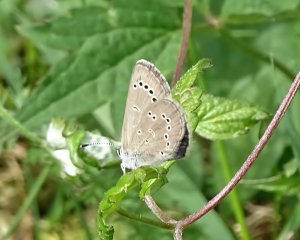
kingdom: Animalia
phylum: Arthropoda
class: Insecta
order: Lepidoptera
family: Lycaenidae
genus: Glaucopsyche
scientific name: Glaucopsyche lygdamus
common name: Silvery Blue
